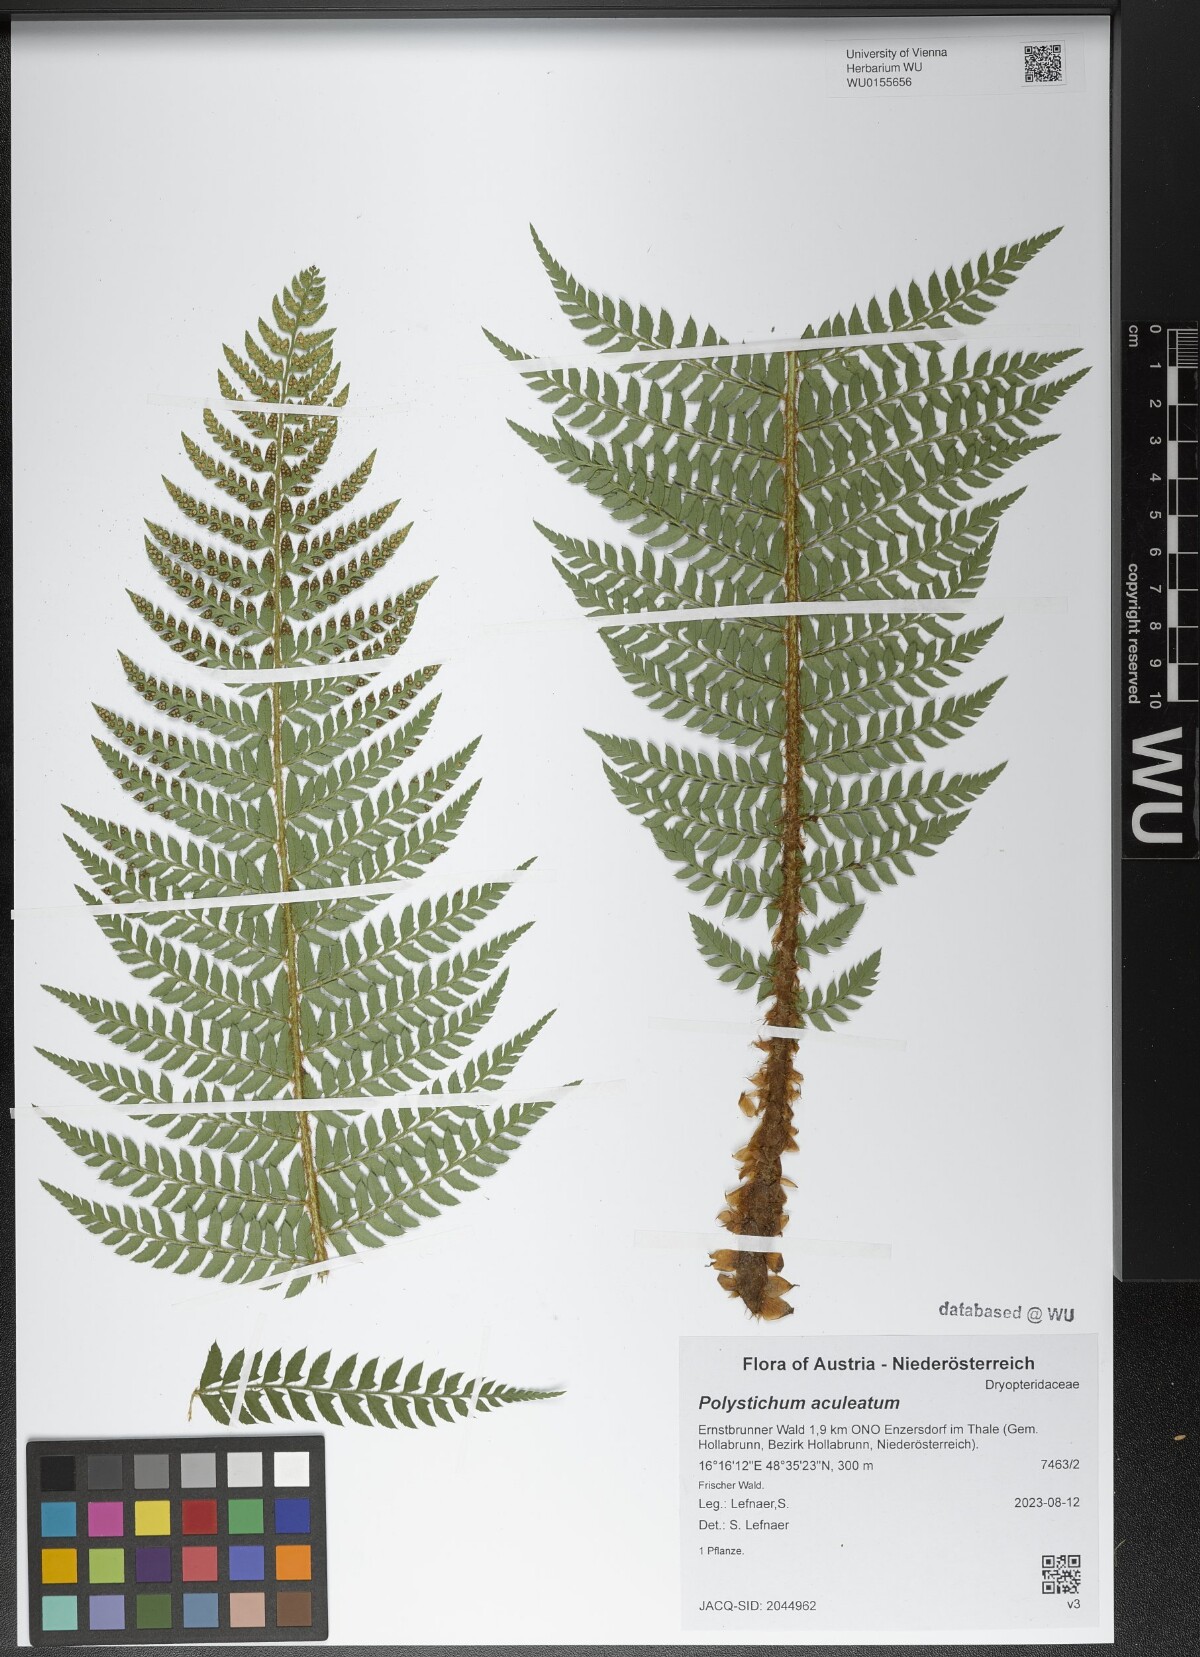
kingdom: Plantae
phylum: Tracheophyta
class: Polypodiopsida
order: Polypodiales
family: Dryopteridaceae
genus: Polystichum
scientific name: Polystichum aculeatum
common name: Hard shield-fern
